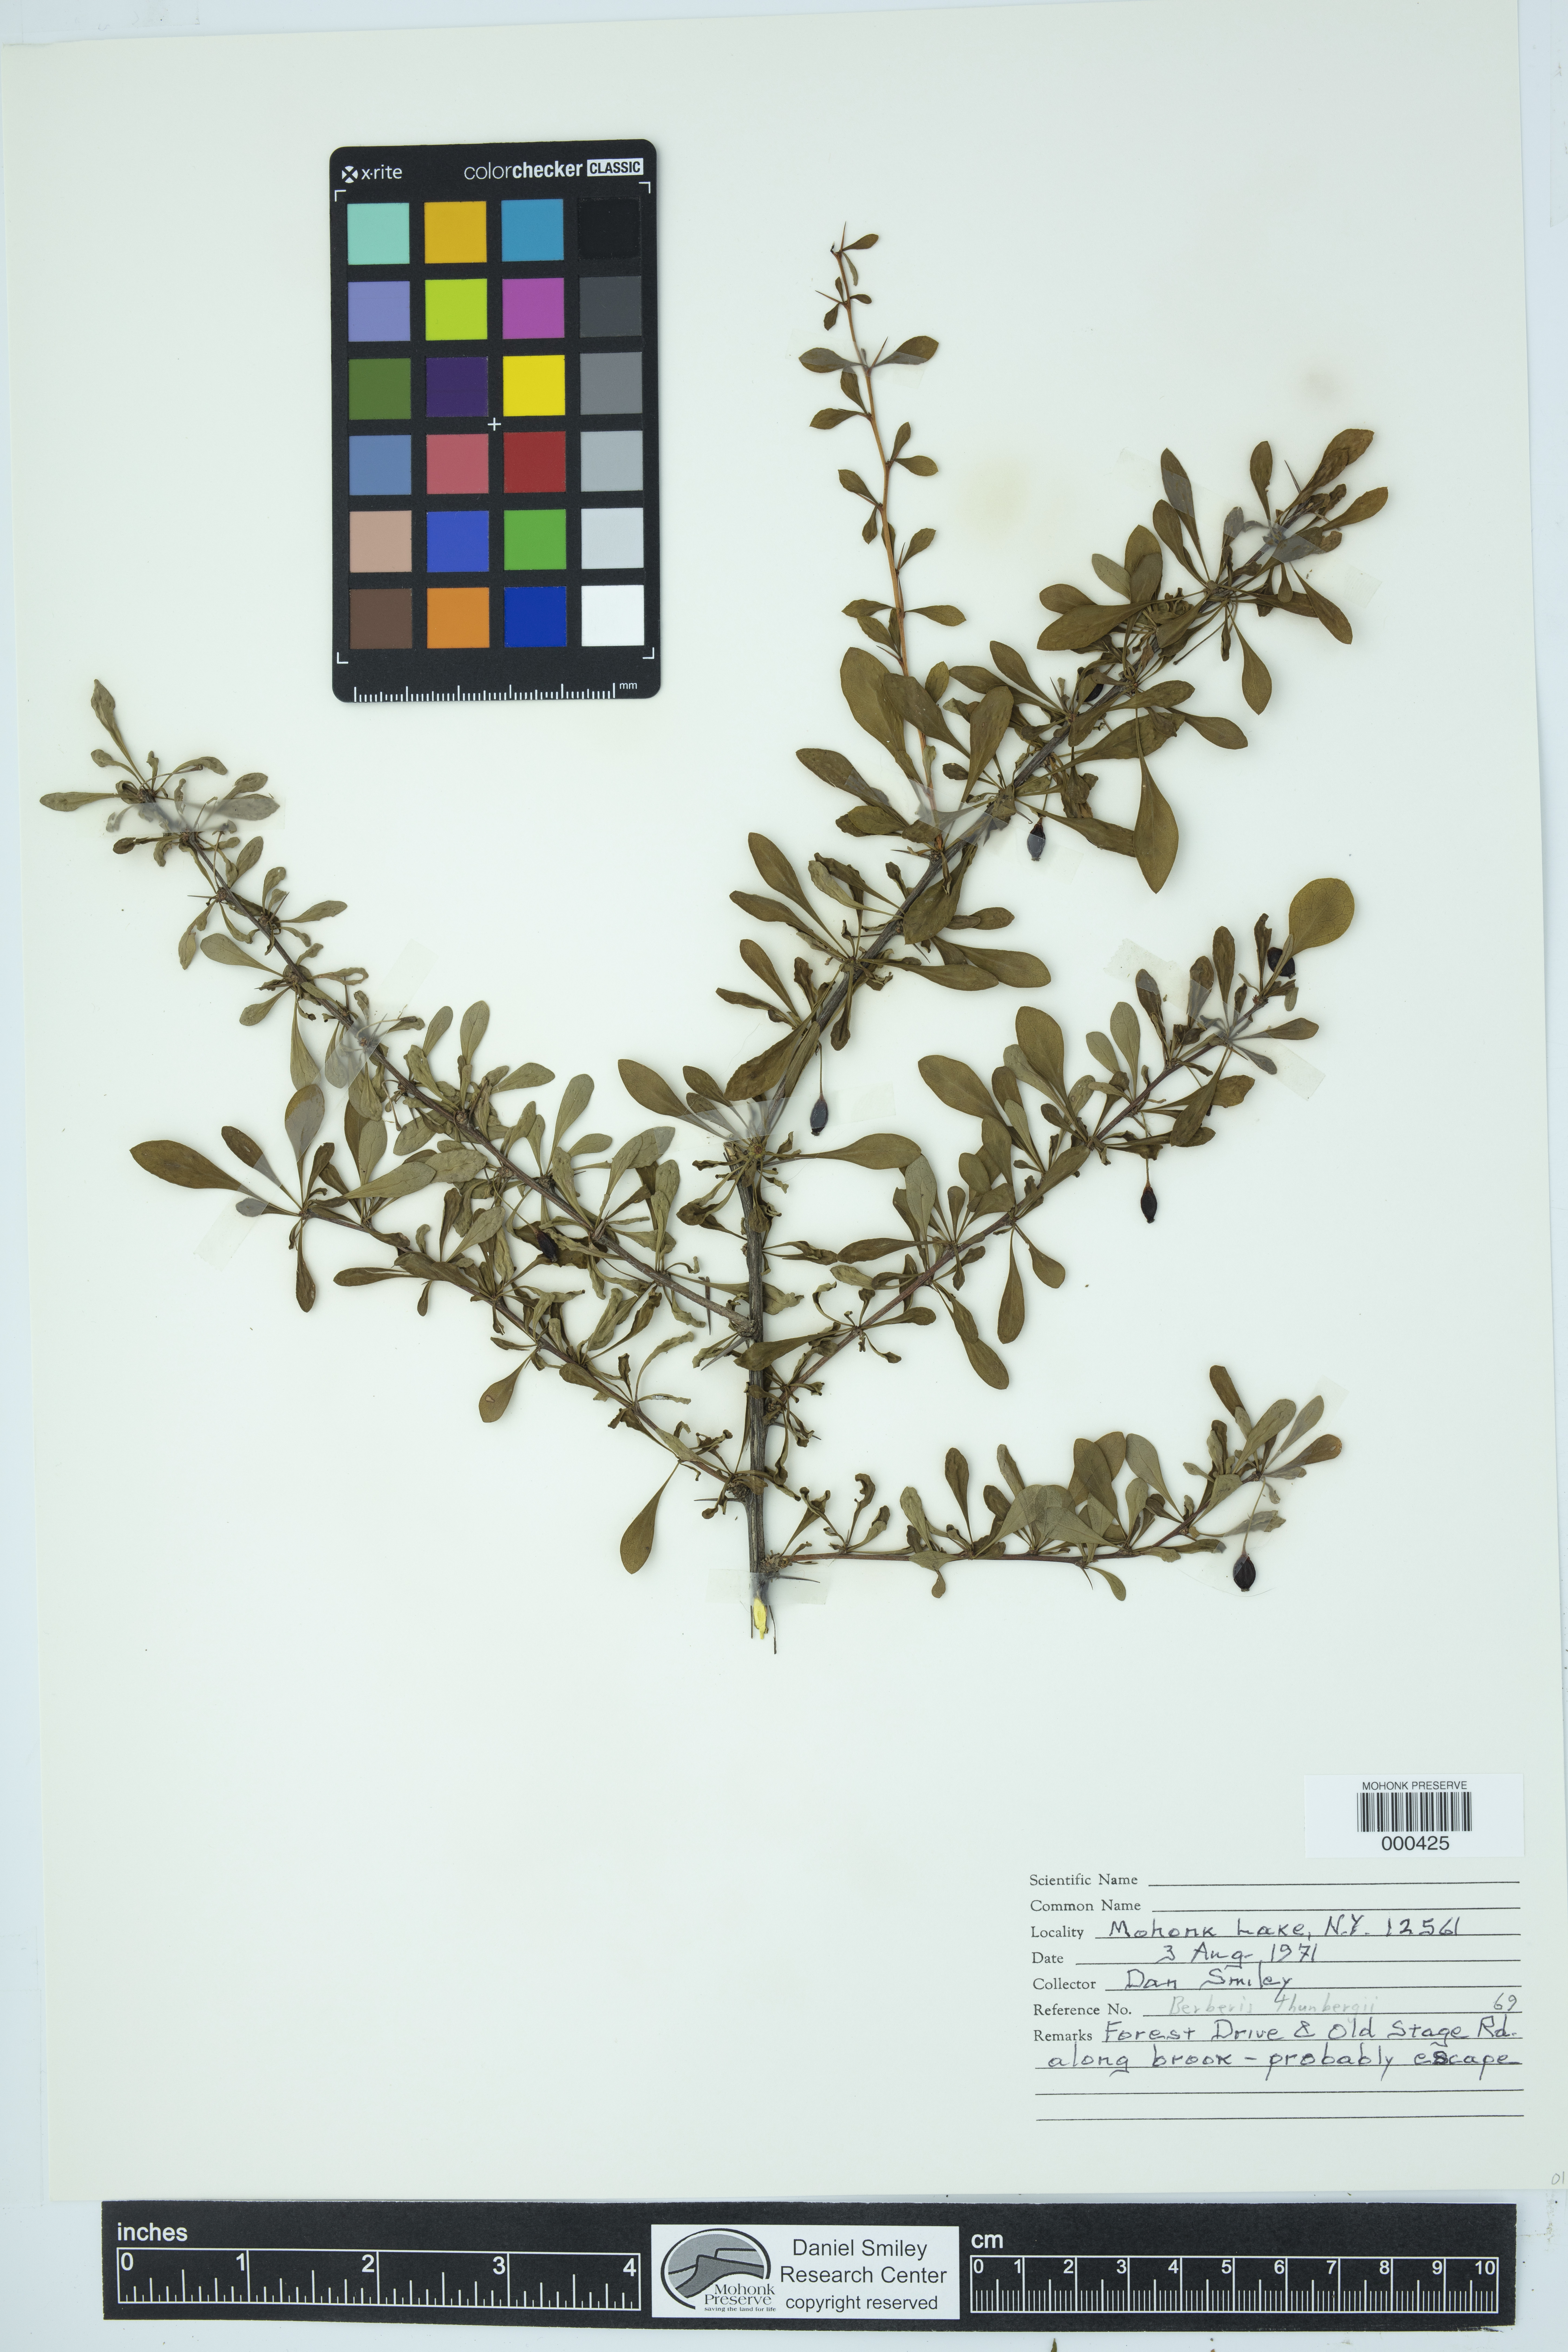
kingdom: Plantae
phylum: Tracheophyta
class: Magnoliopsida
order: Ranunculales
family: Berberidaceae
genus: Berberis
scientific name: Berberis thunbergii
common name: Japanese barberry
